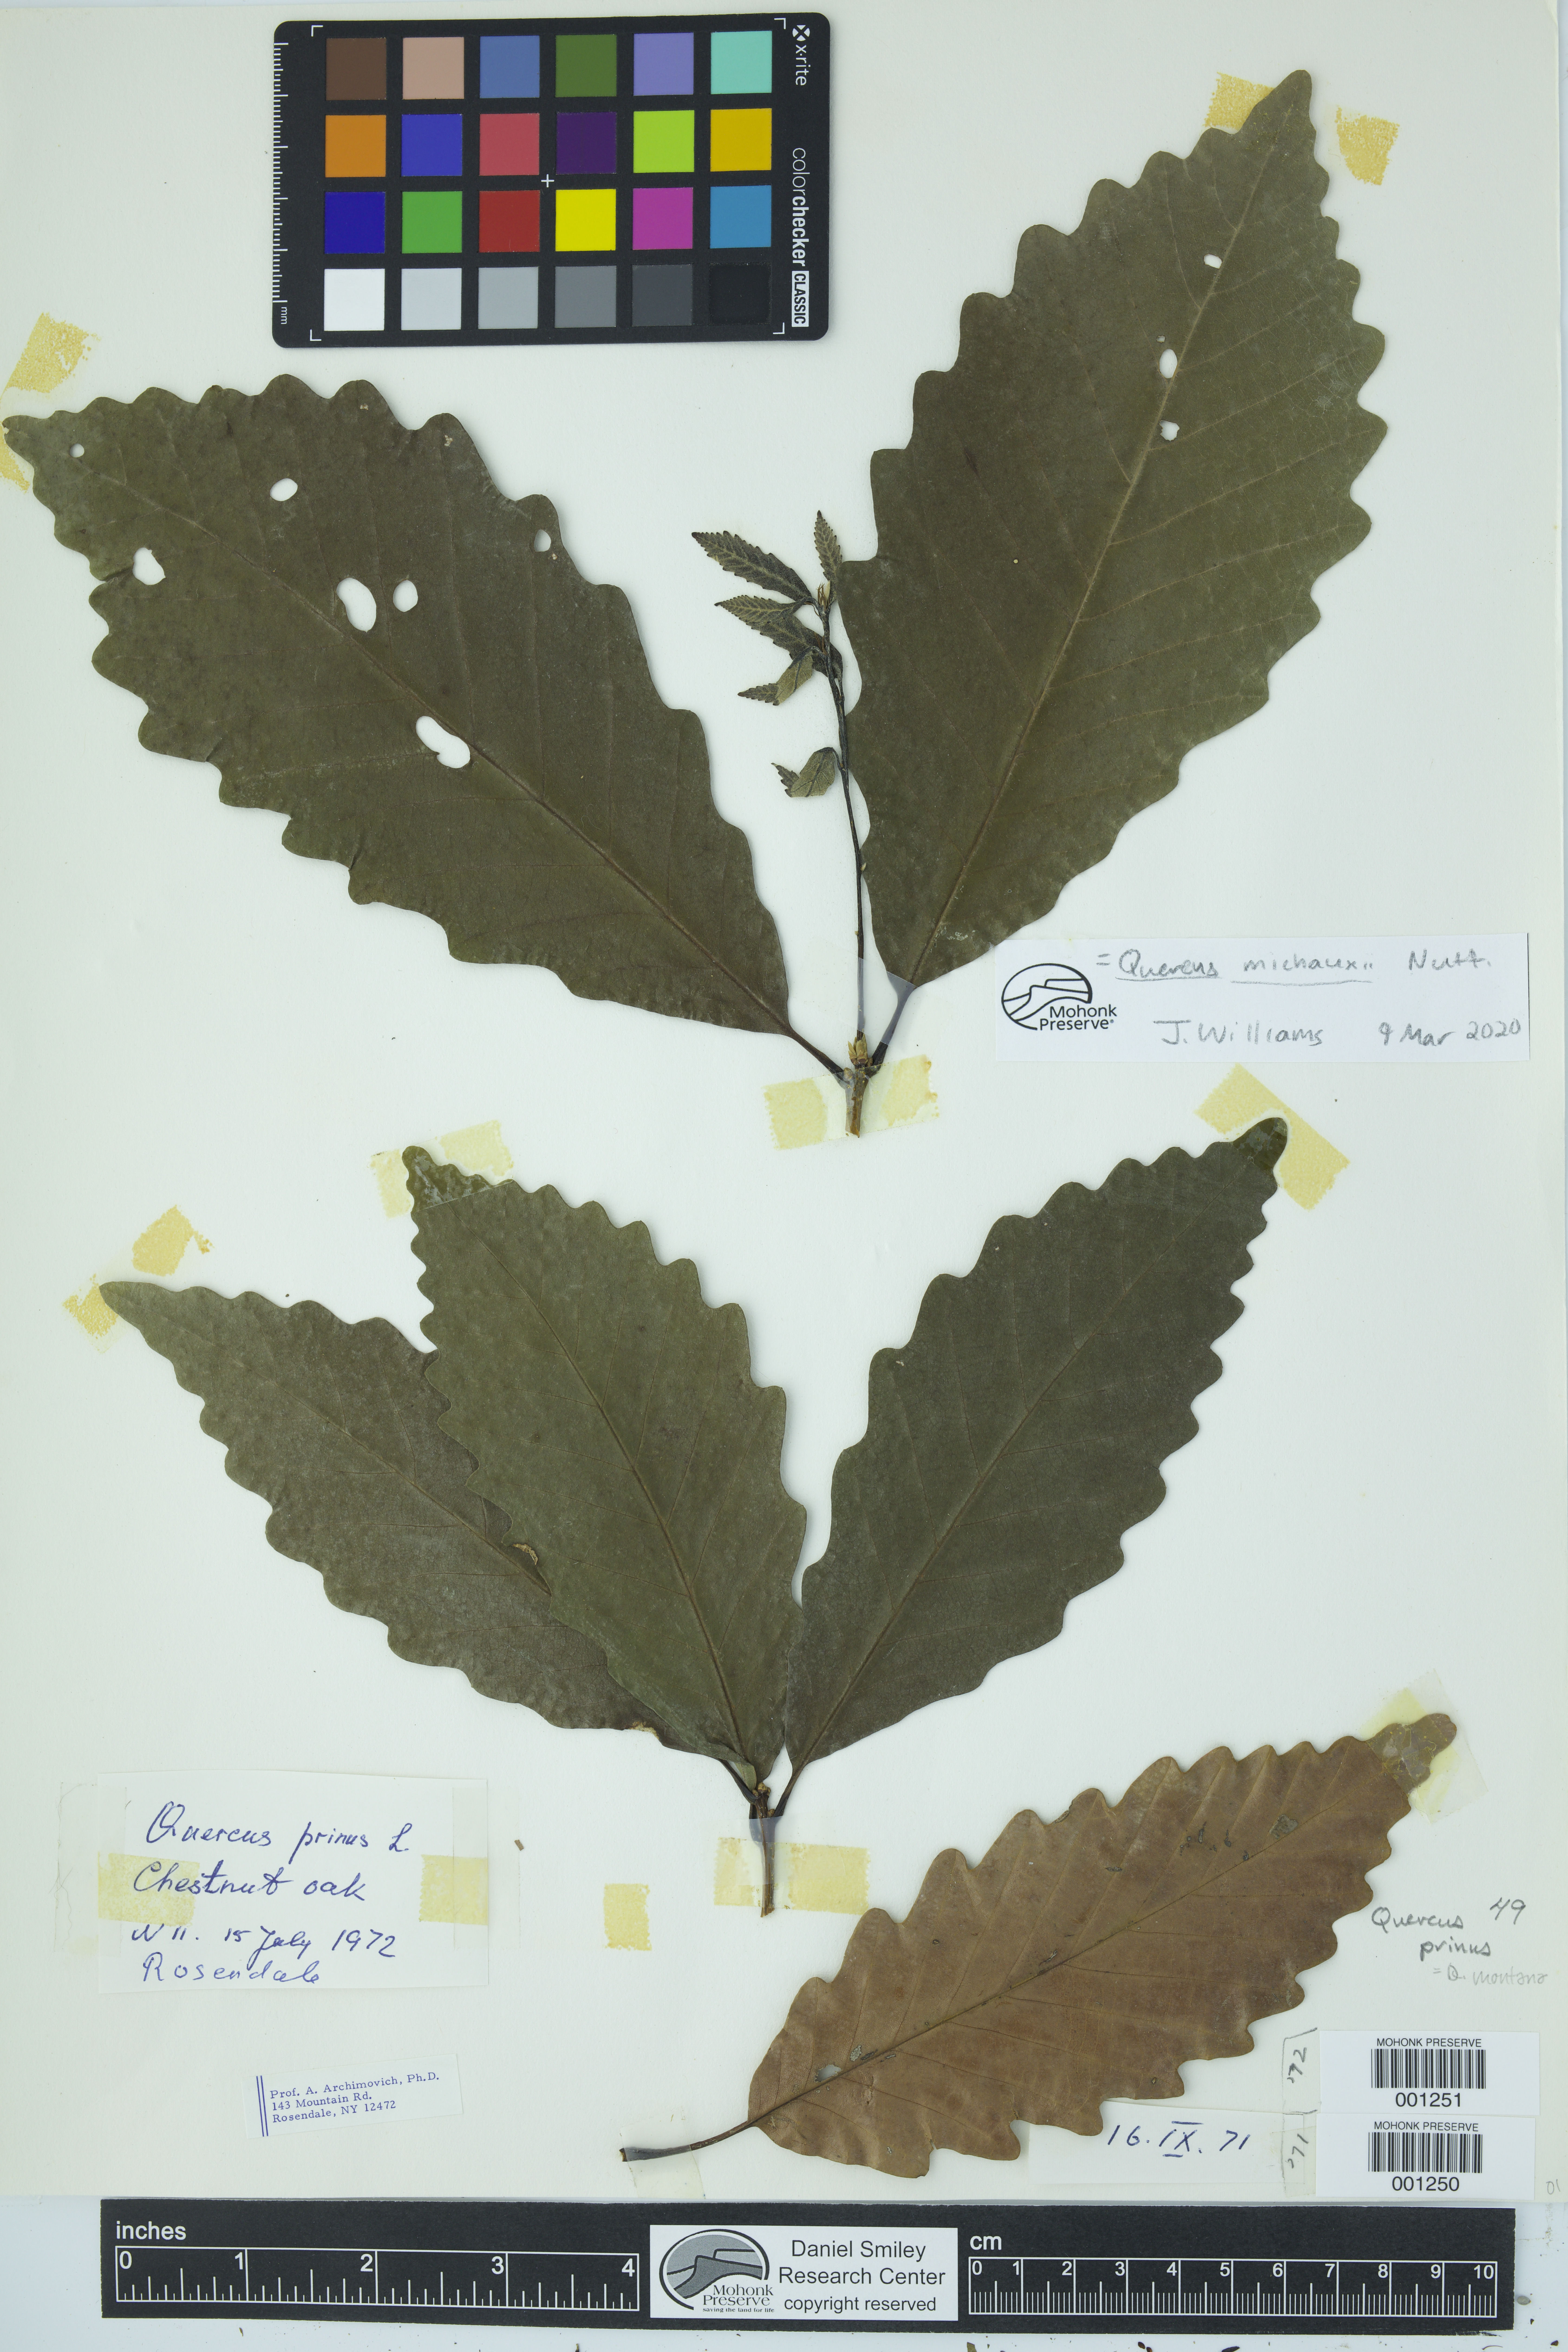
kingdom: Plantae
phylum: Tracheophyta
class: Magnoliopsida
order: Fagales
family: Fagaceae
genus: Quercus
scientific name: Quercus michauxii
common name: Swamp chestnut oak
